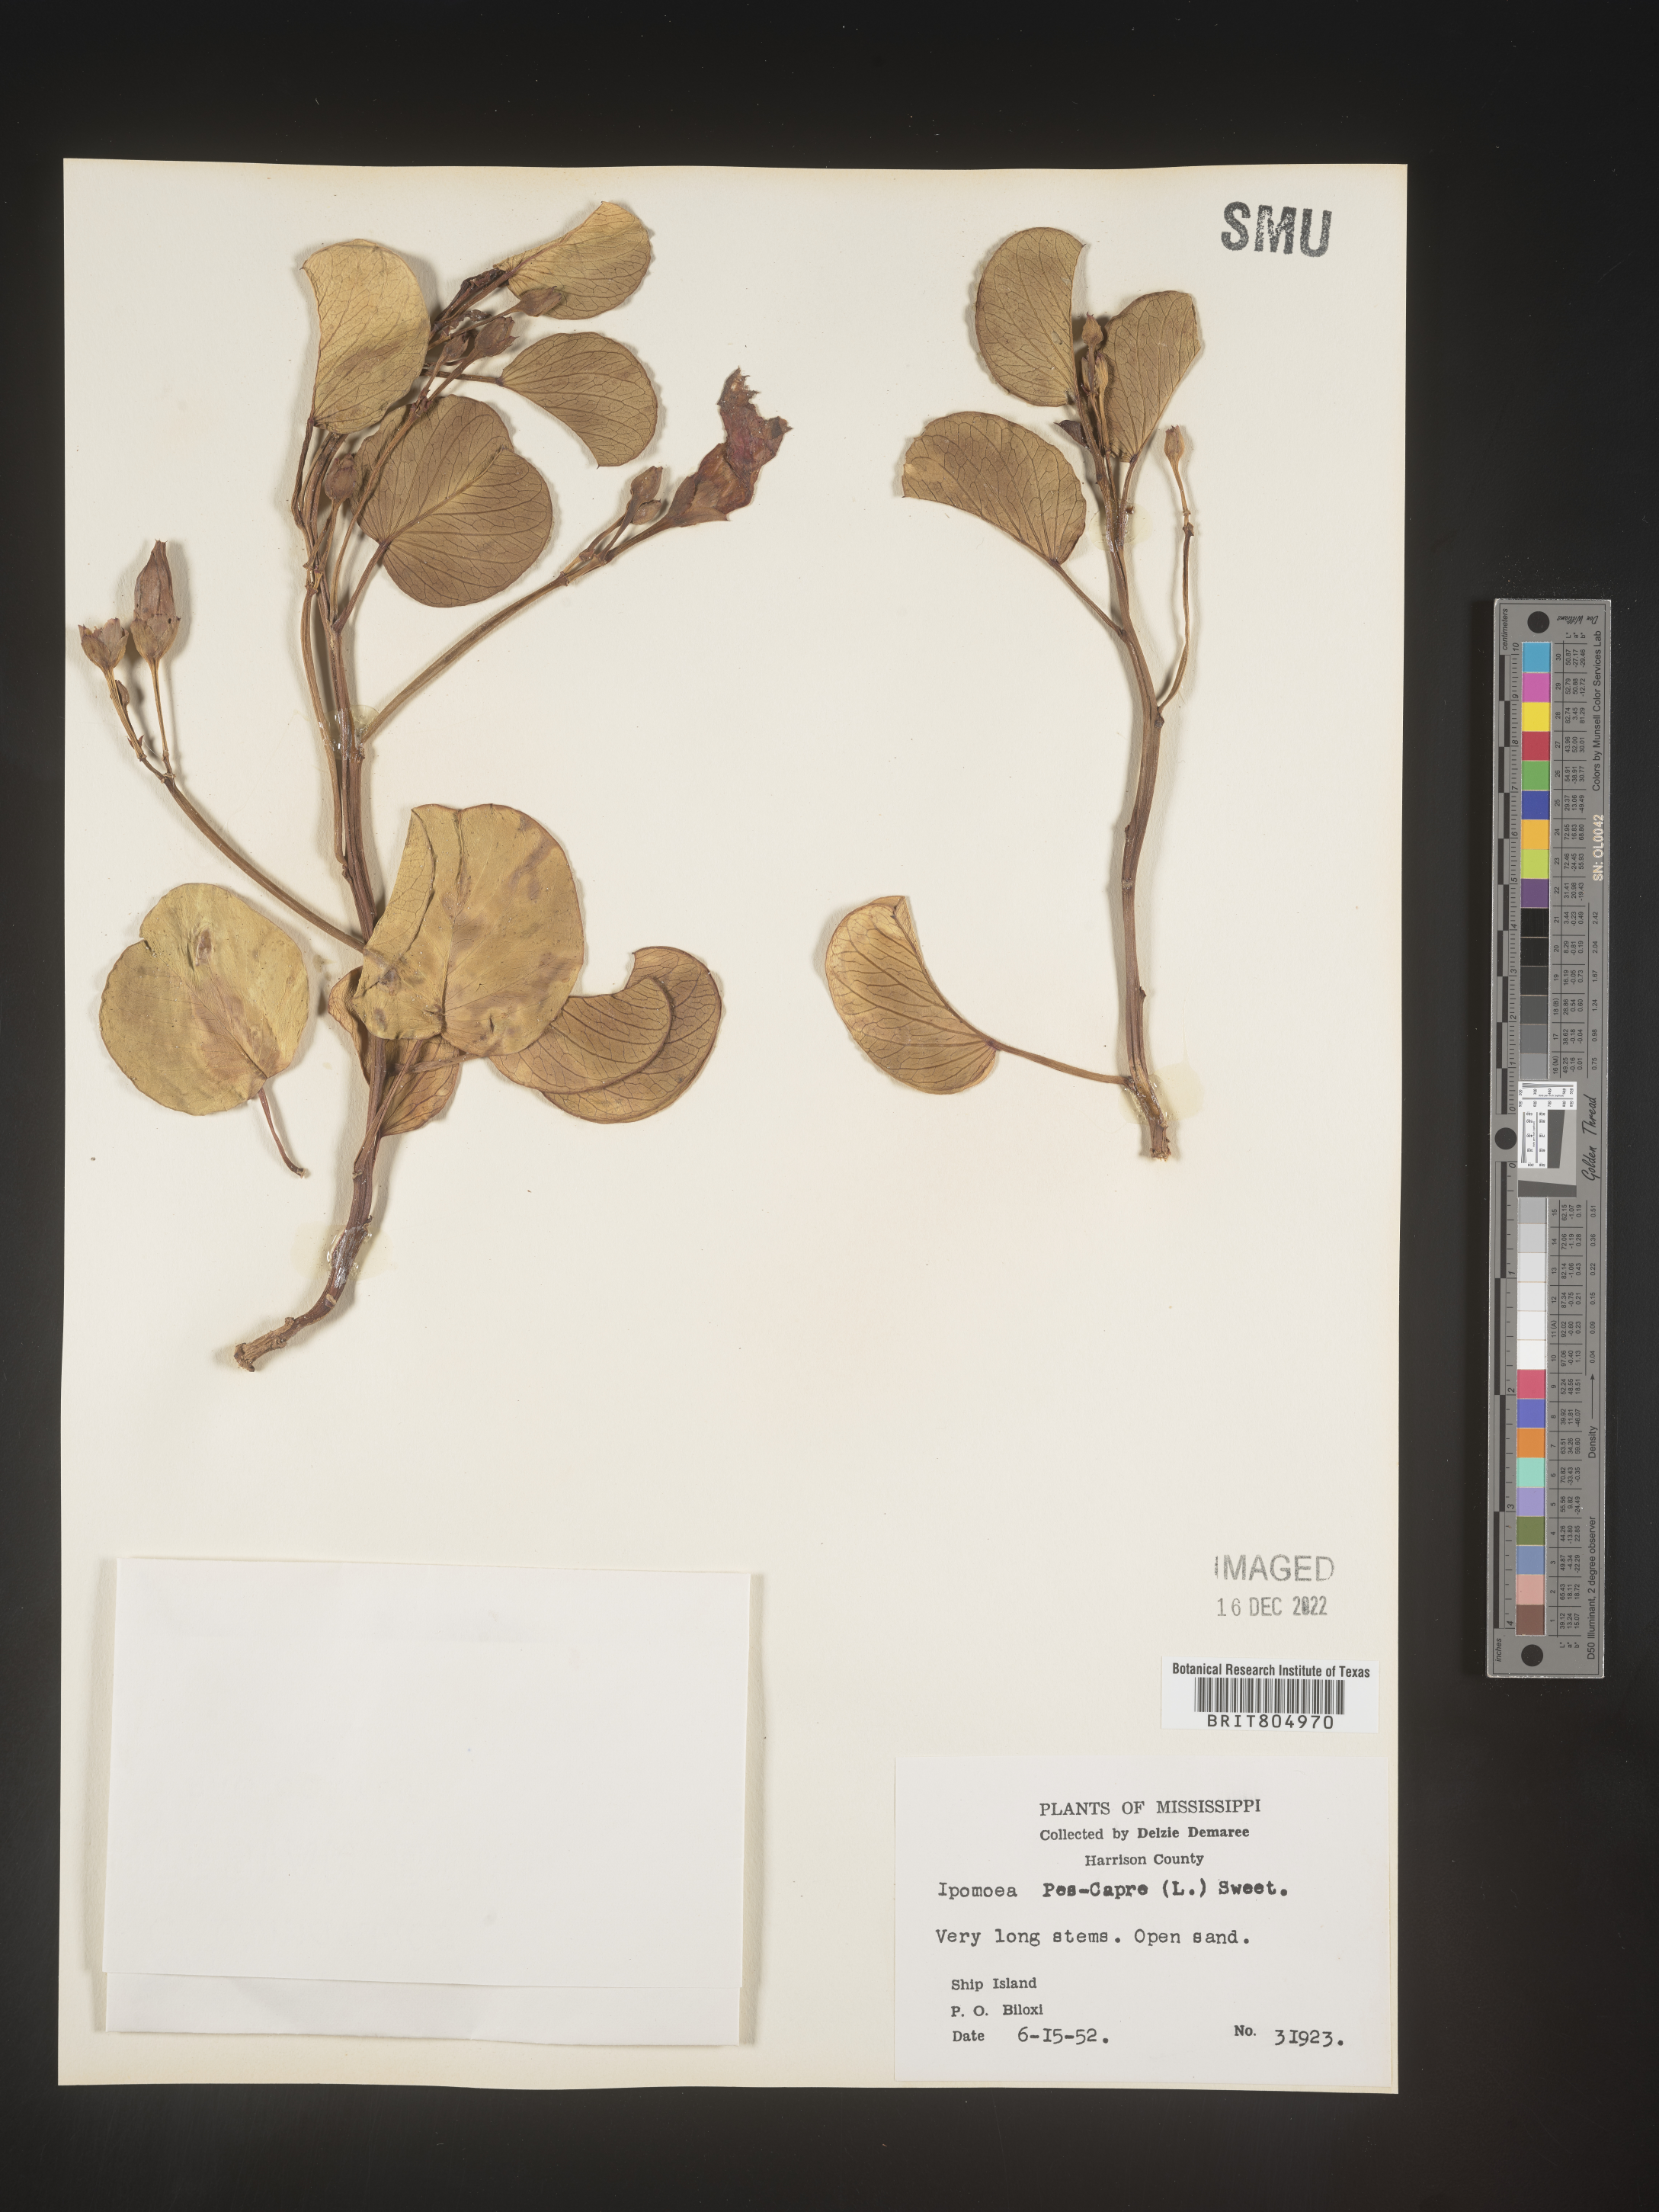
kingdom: Plantae
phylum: Tracheophyta
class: Magnoliopsida
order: Solanales
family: Convolvulaceae
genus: Ipomoea
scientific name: Ipomoea pes-caprae
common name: Beach morning glory
